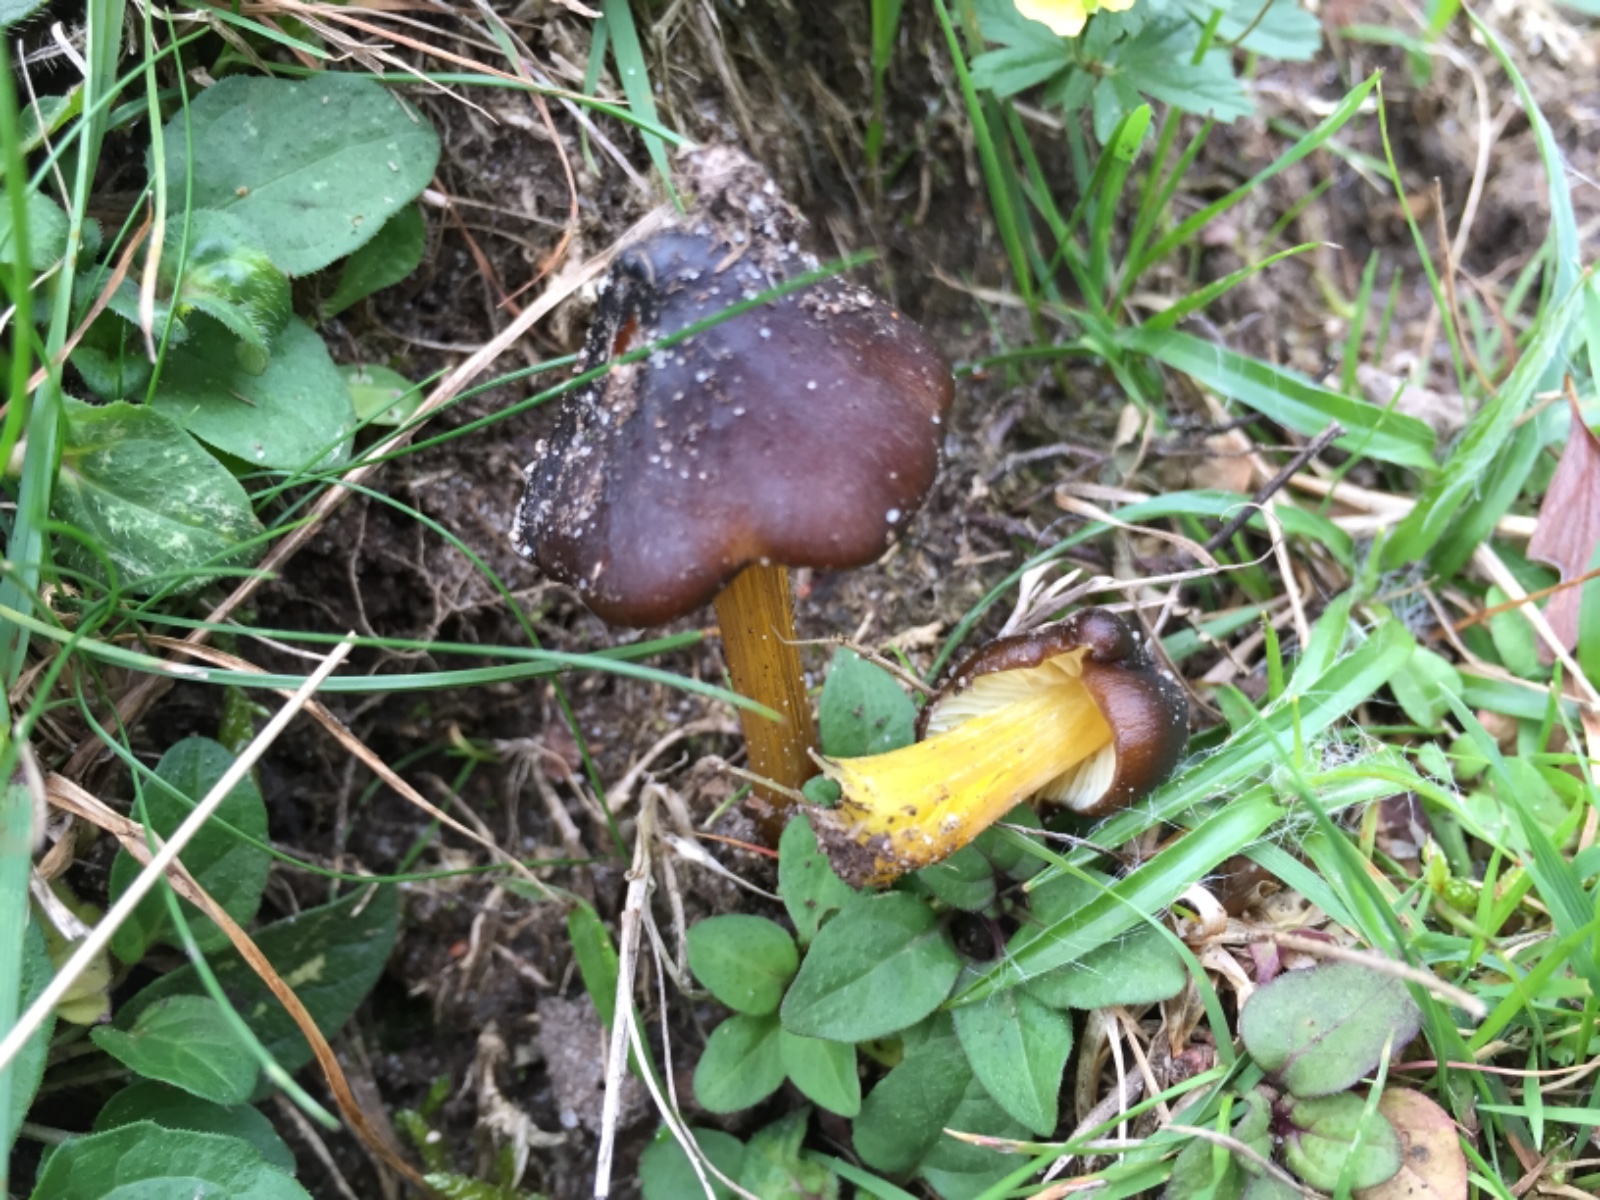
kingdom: Fungi
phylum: Basidiomycota
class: Agaricomycetes
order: Agaricales
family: Hygrophoraceae
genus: Hygrocybe
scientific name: Hygrocybe spadicea
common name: daddelbrun vokshat
